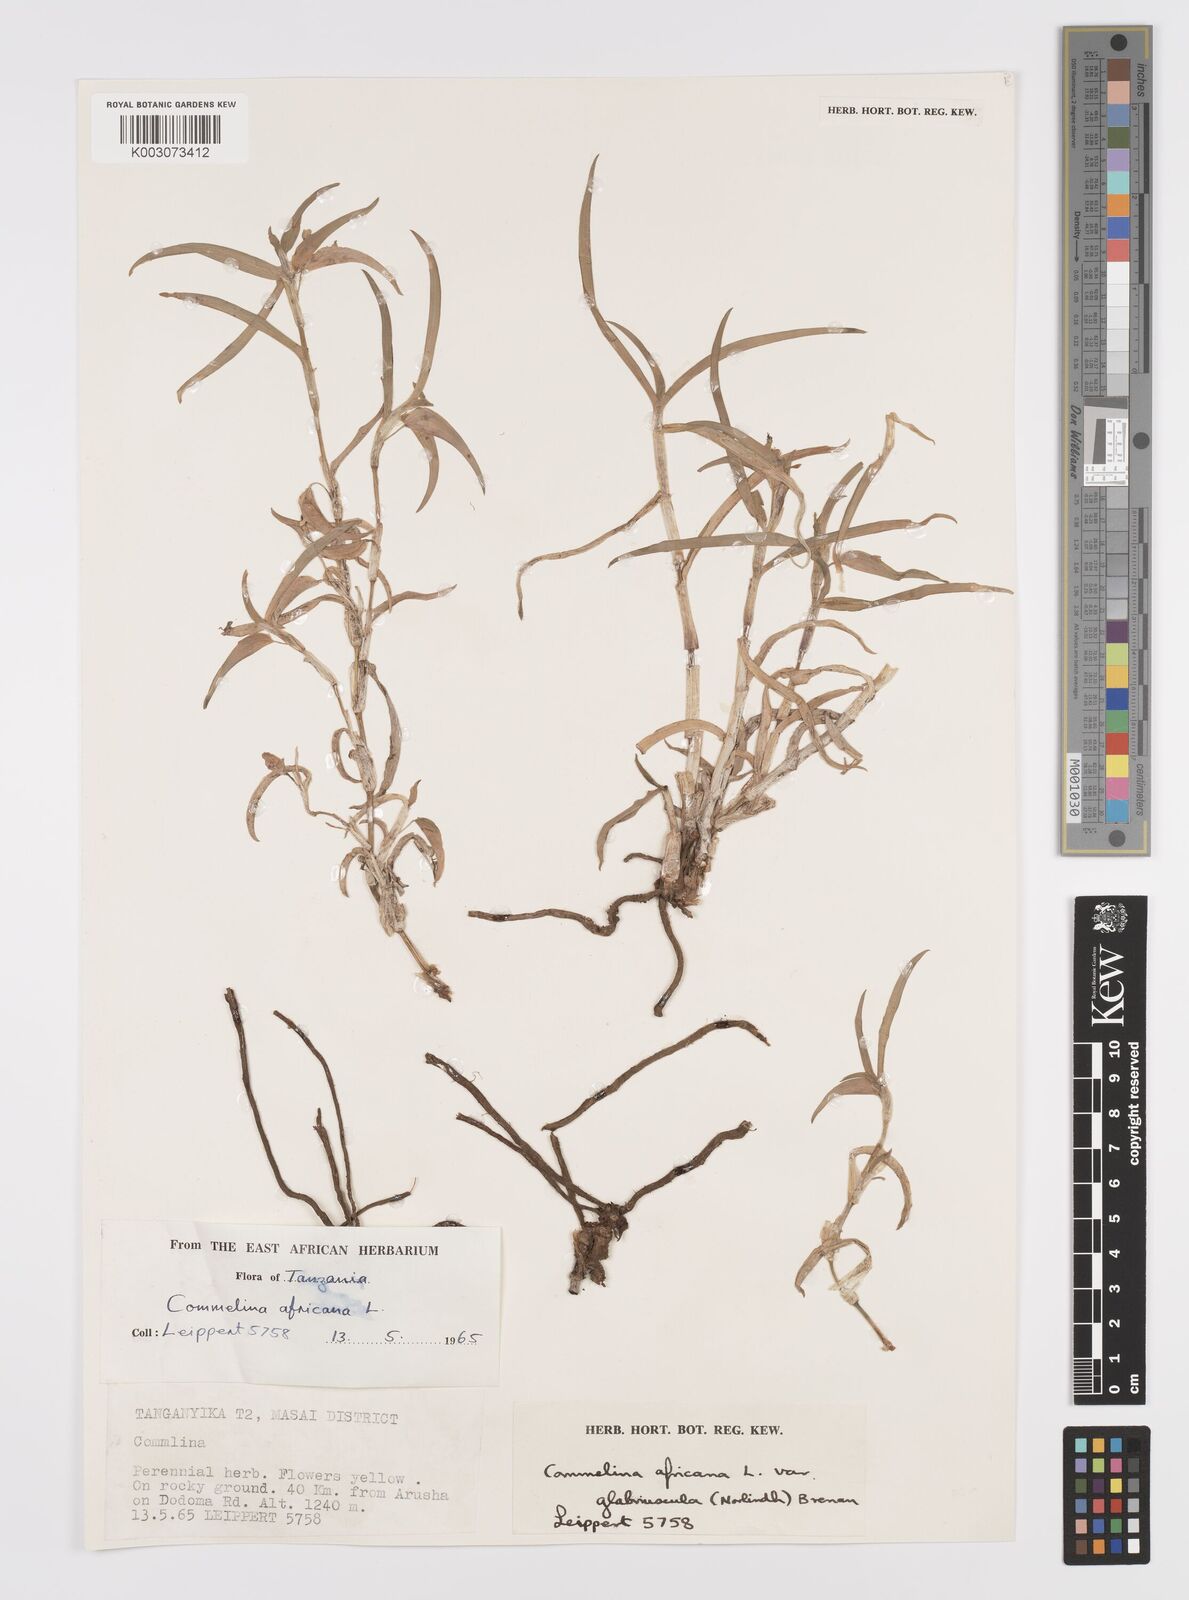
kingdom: Plantae
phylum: Tracheophyta
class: Liliopsida
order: Commelinales
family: Commelinaceae
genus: Commelina
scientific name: Commelina africana
